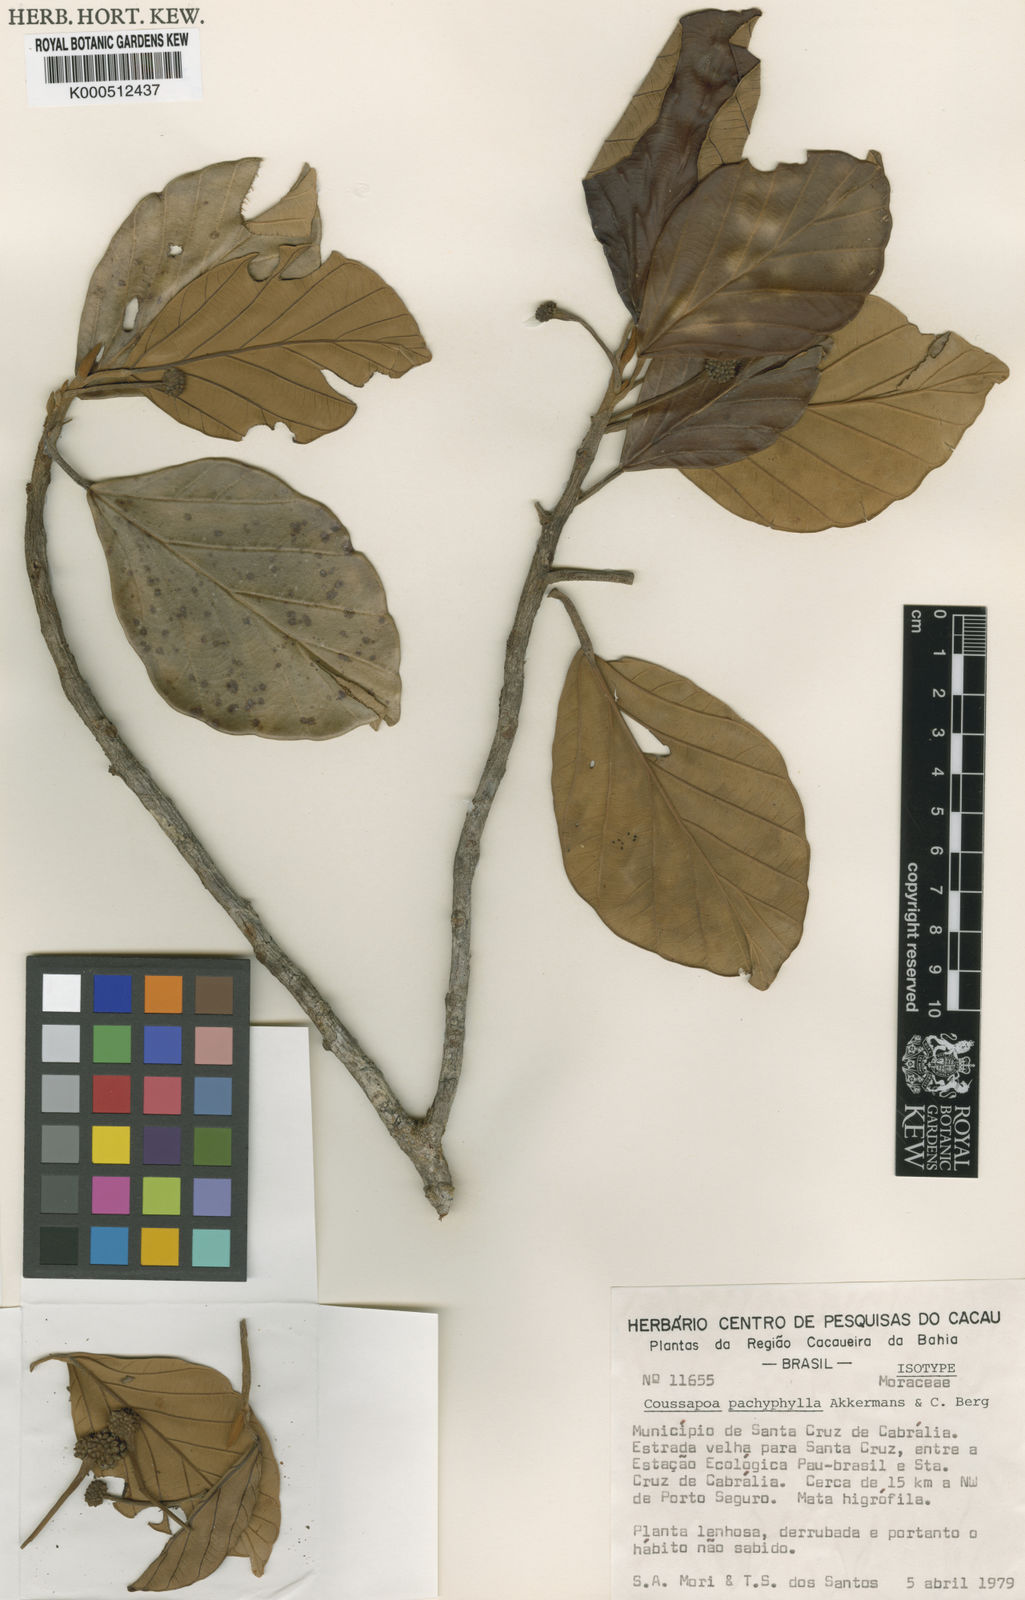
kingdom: Plantae
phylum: Tracheophyta
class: Magnoliopsida
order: Rosales
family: Urticaceae
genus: Coussapoa
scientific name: Coussapoa pachyphylla
